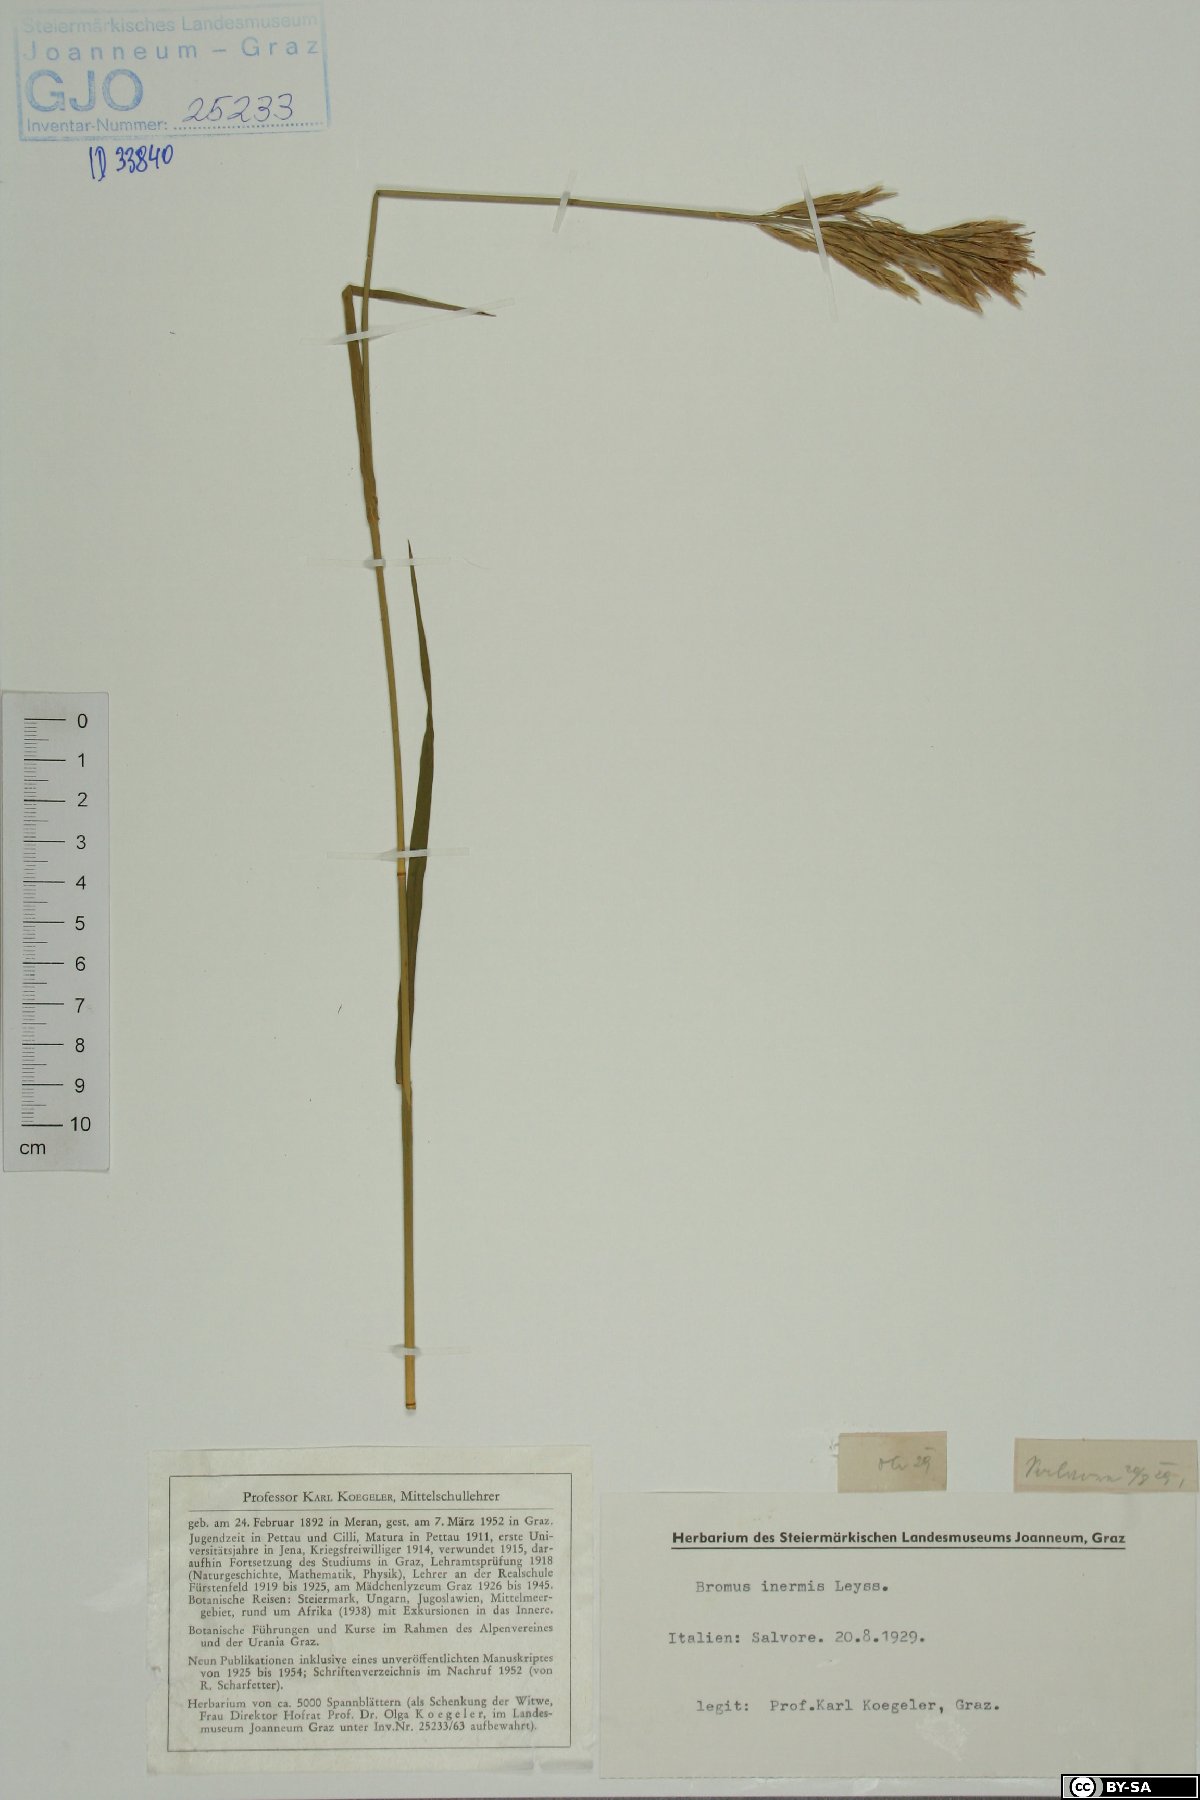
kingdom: Plantae
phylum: Tracheophyta
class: Liliopsida
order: Poales
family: Poaceae
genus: Bromus
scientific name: Bromus inermis
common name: Smooth brome
